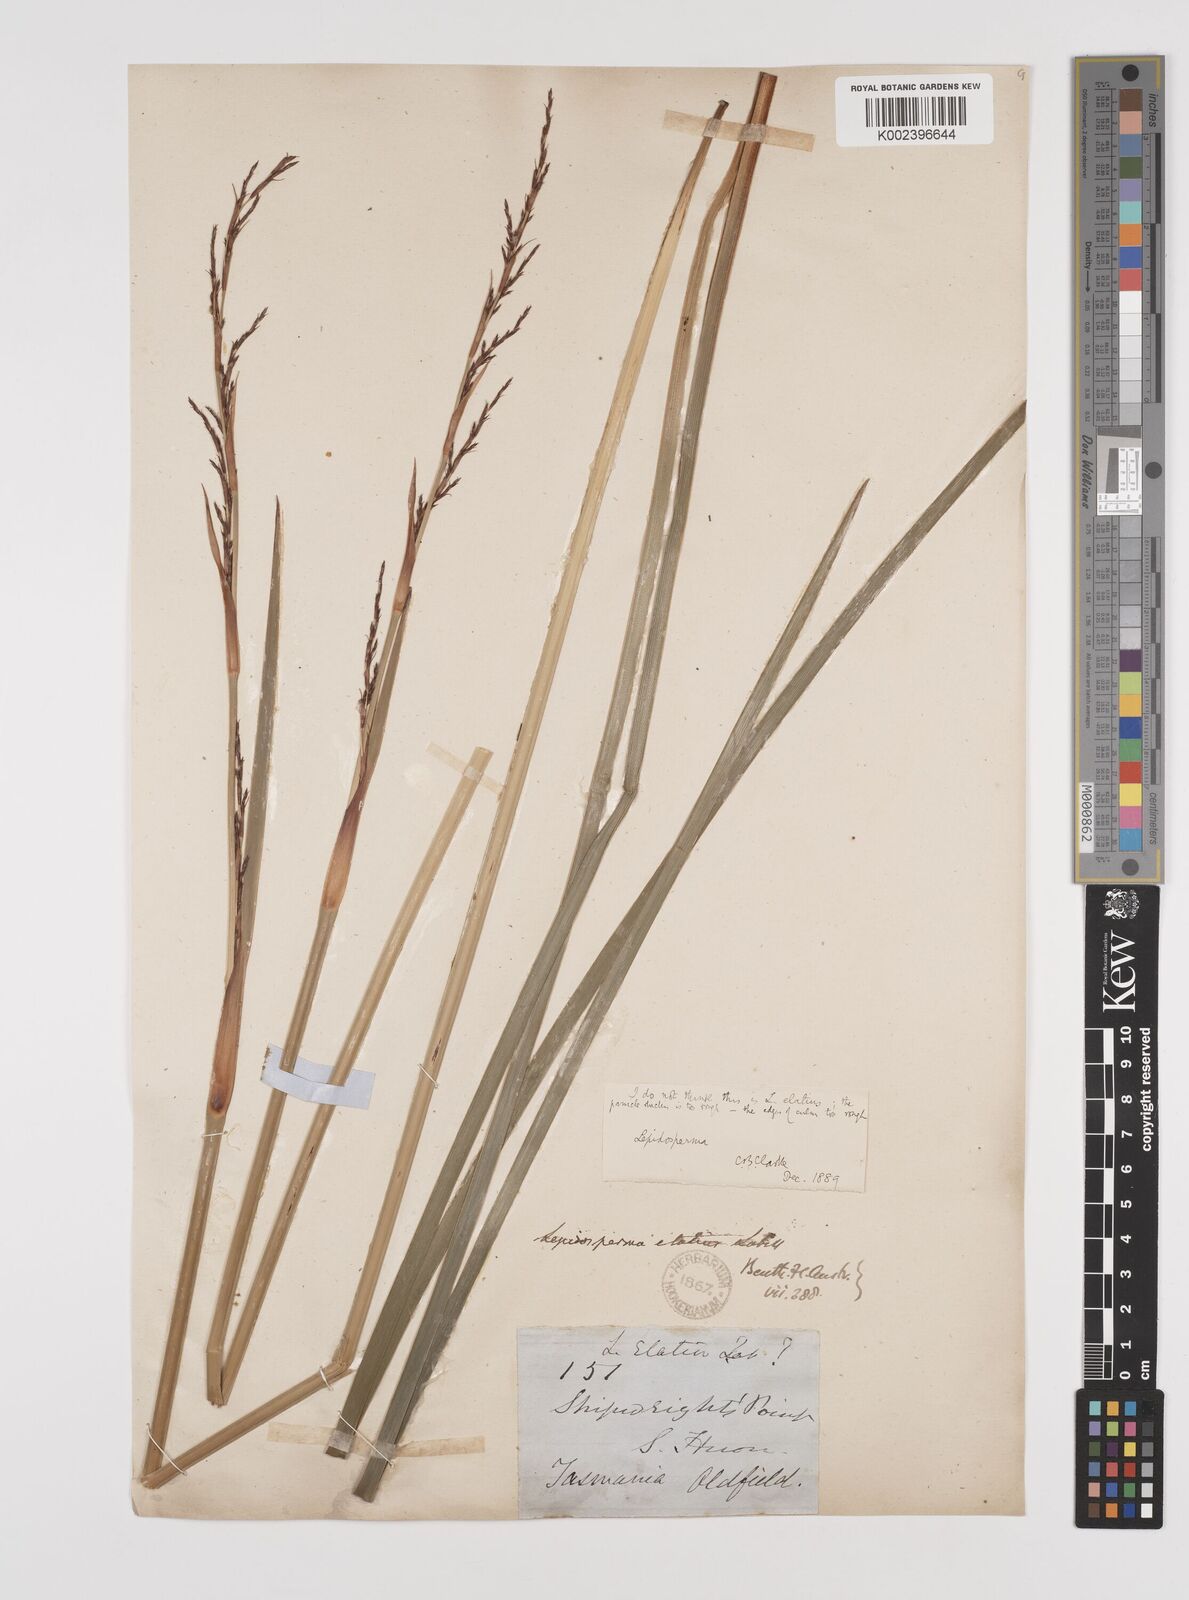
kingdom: Plantae
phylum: Tracheophyta
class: Liliopsida
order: Poales
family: Cyperaceae
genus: Lepidosperma
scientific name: Lepidosperma elatius
